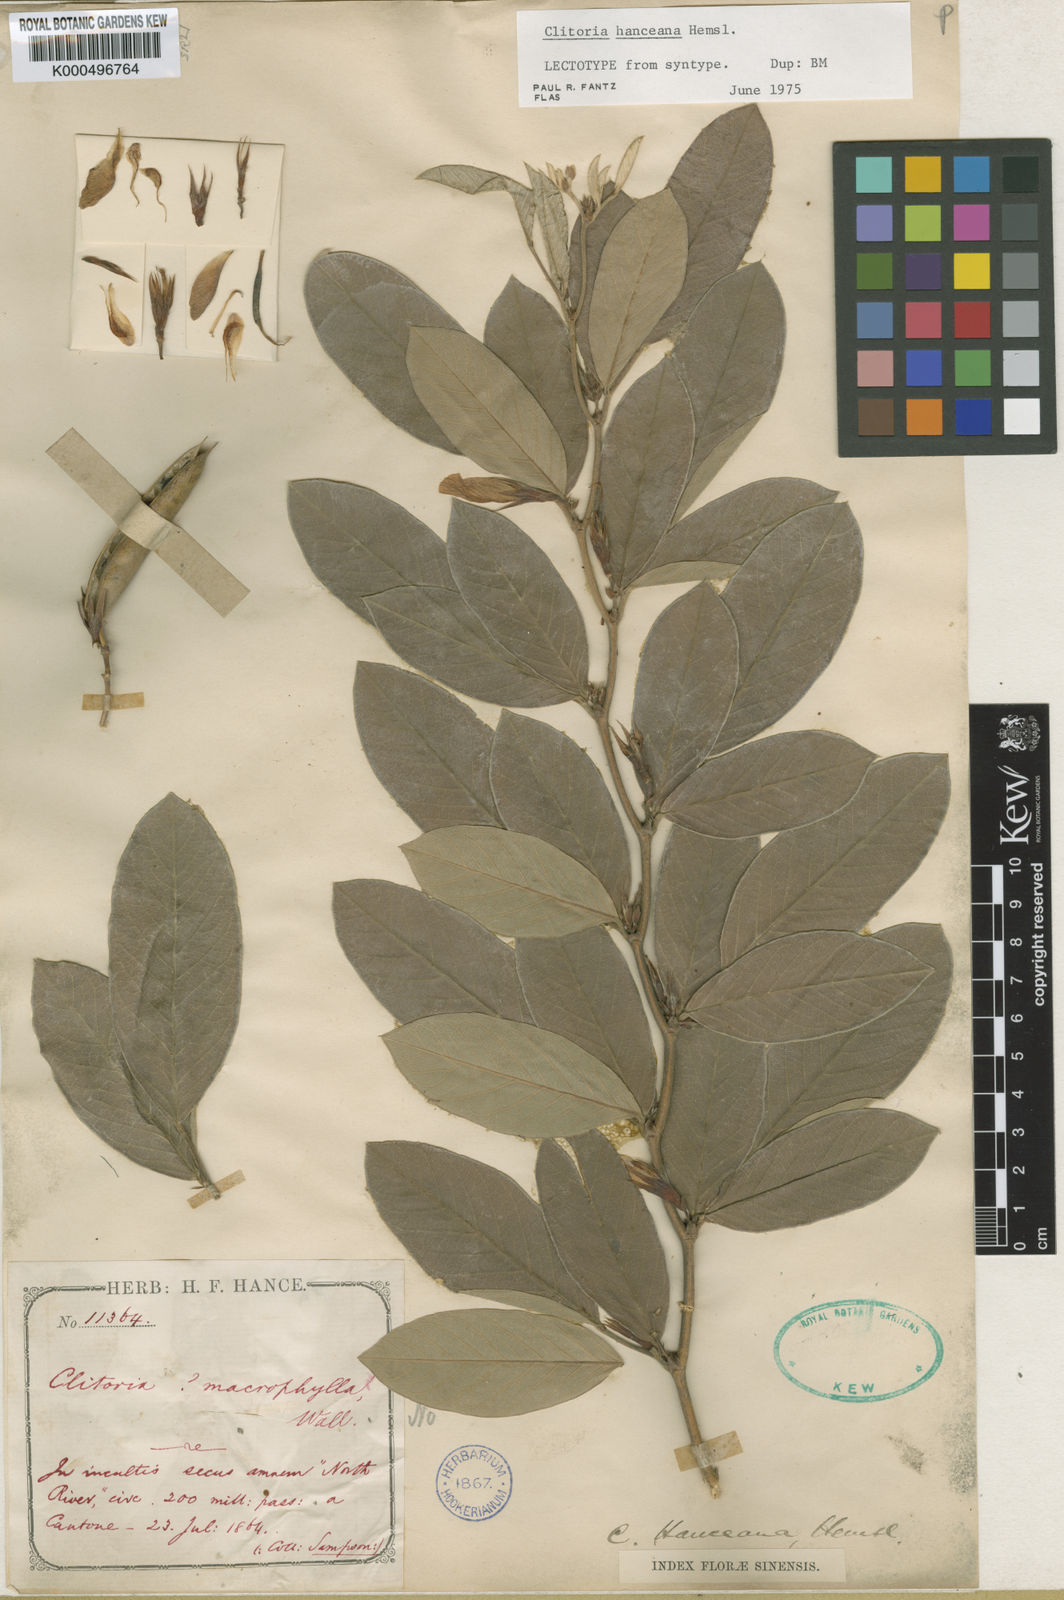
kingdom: Plantae
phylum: Tracheophyta
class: Magnoliopsida
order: Fabales
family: Fabaceae
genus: Clitoria
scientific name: Clitoria hanceana
